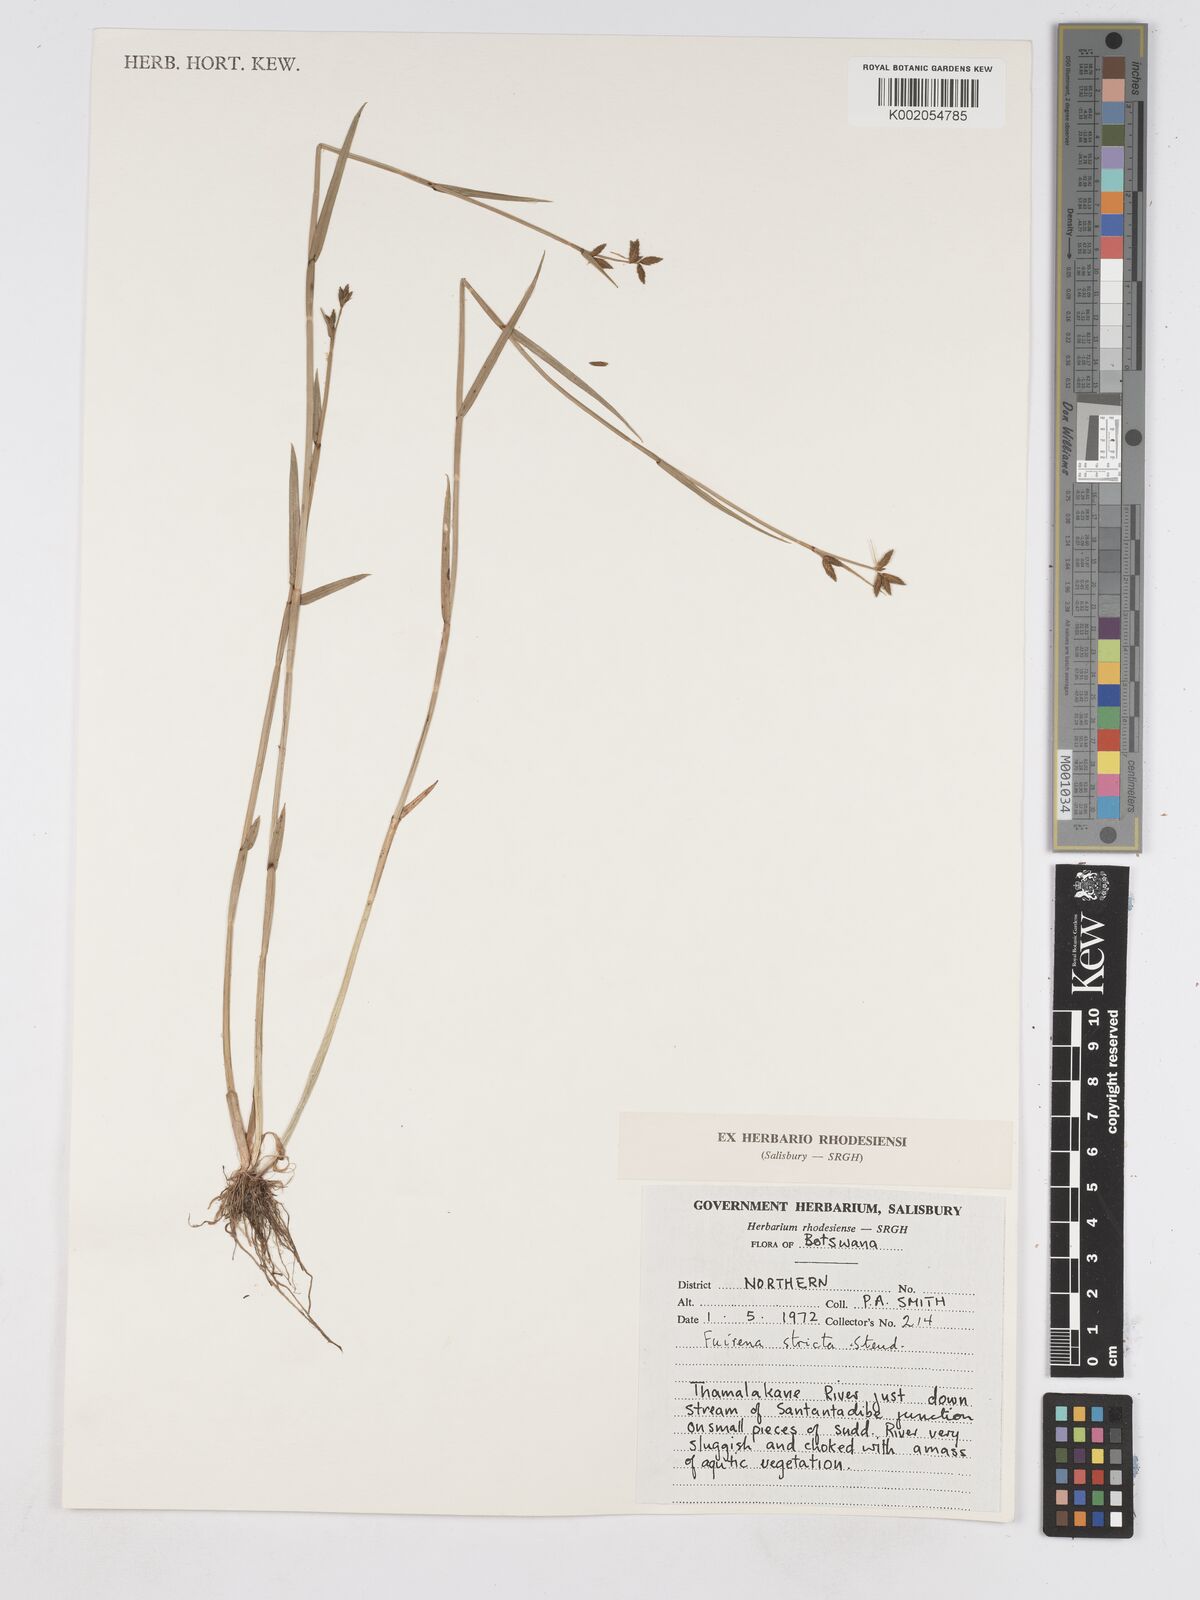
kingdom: Plantae
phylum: Tracheophyta
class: Liliopsida
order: Poales
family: Cyperaceae
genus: Fuirena
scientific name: Fuirena stricta
